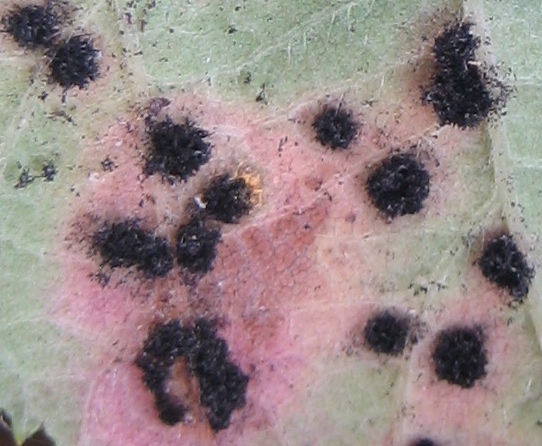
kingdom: Fungi
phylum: Basidiomycota
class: Pucciniomycetes
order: Pucciniales
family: Phragmidiaceae
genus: Phragmidium
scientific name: Phragmidium
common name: flercellerust
